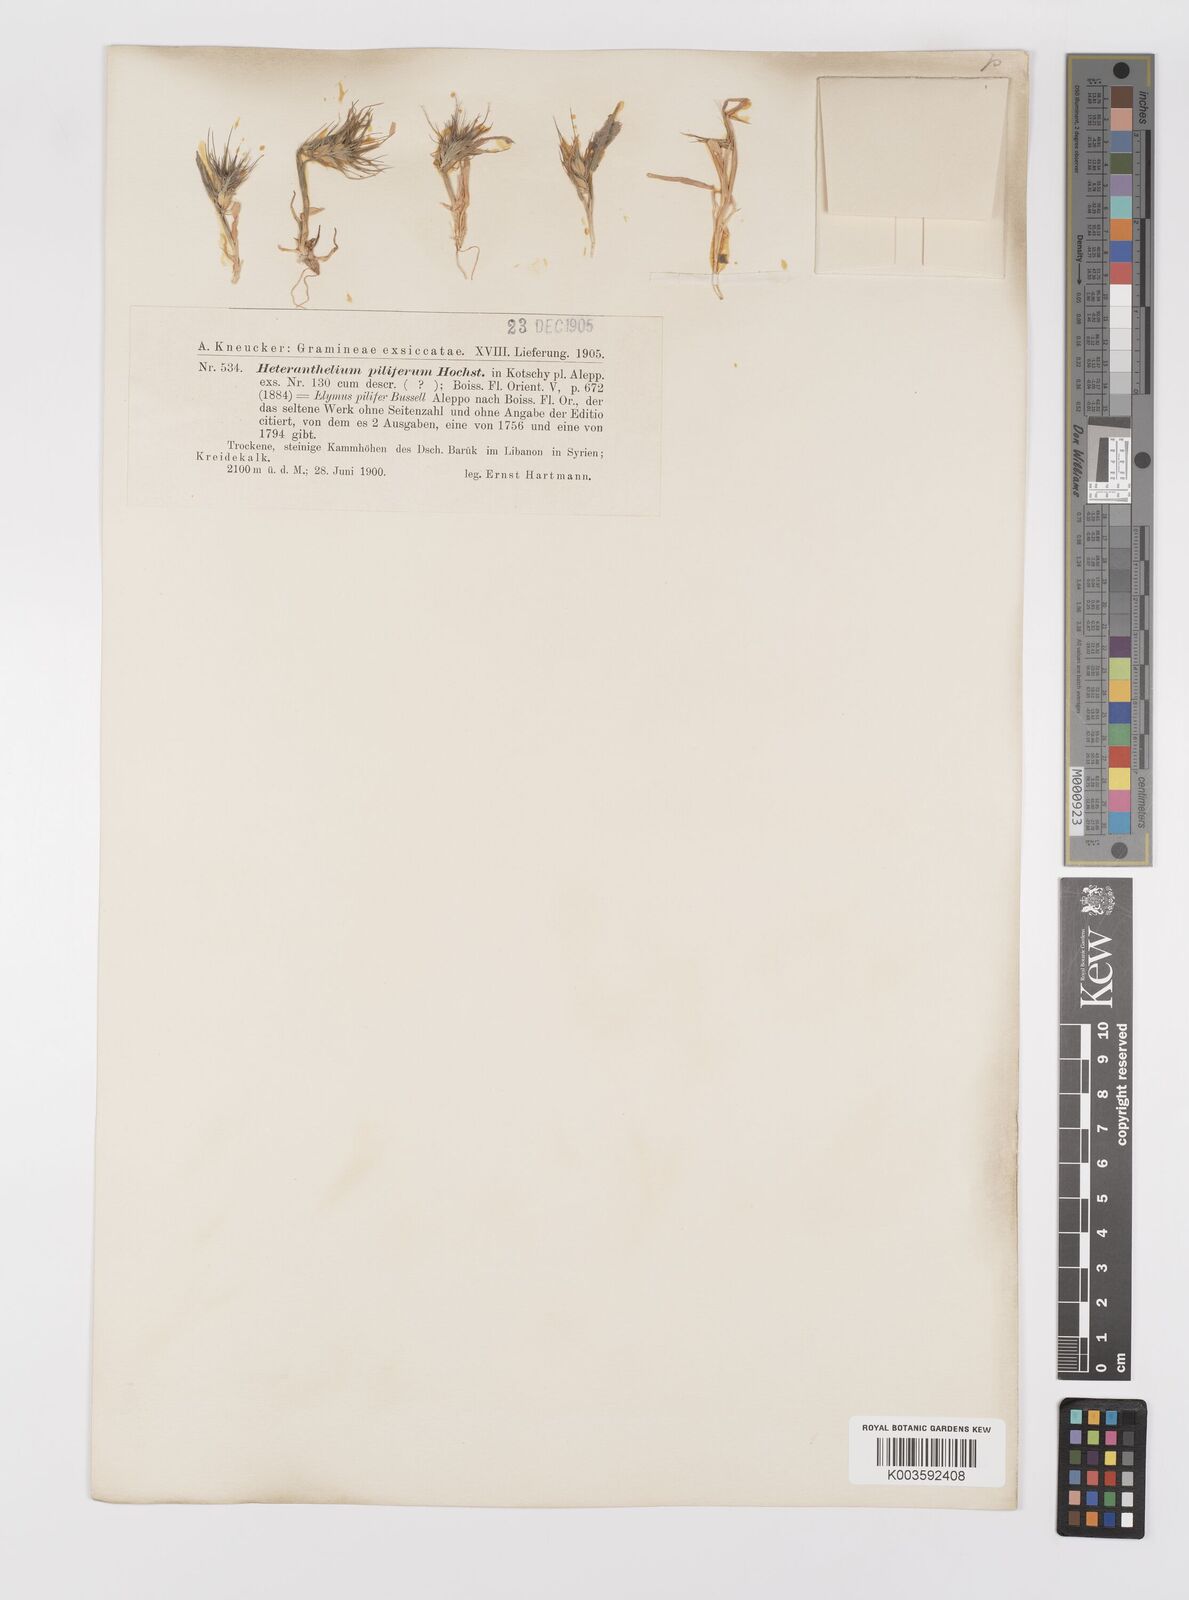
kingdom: Plantae
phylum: Tracheophyta
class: Liliopsida
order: Poales
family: Poaceae
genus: Heteranthelium
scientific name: Heteranthelium piliferum
